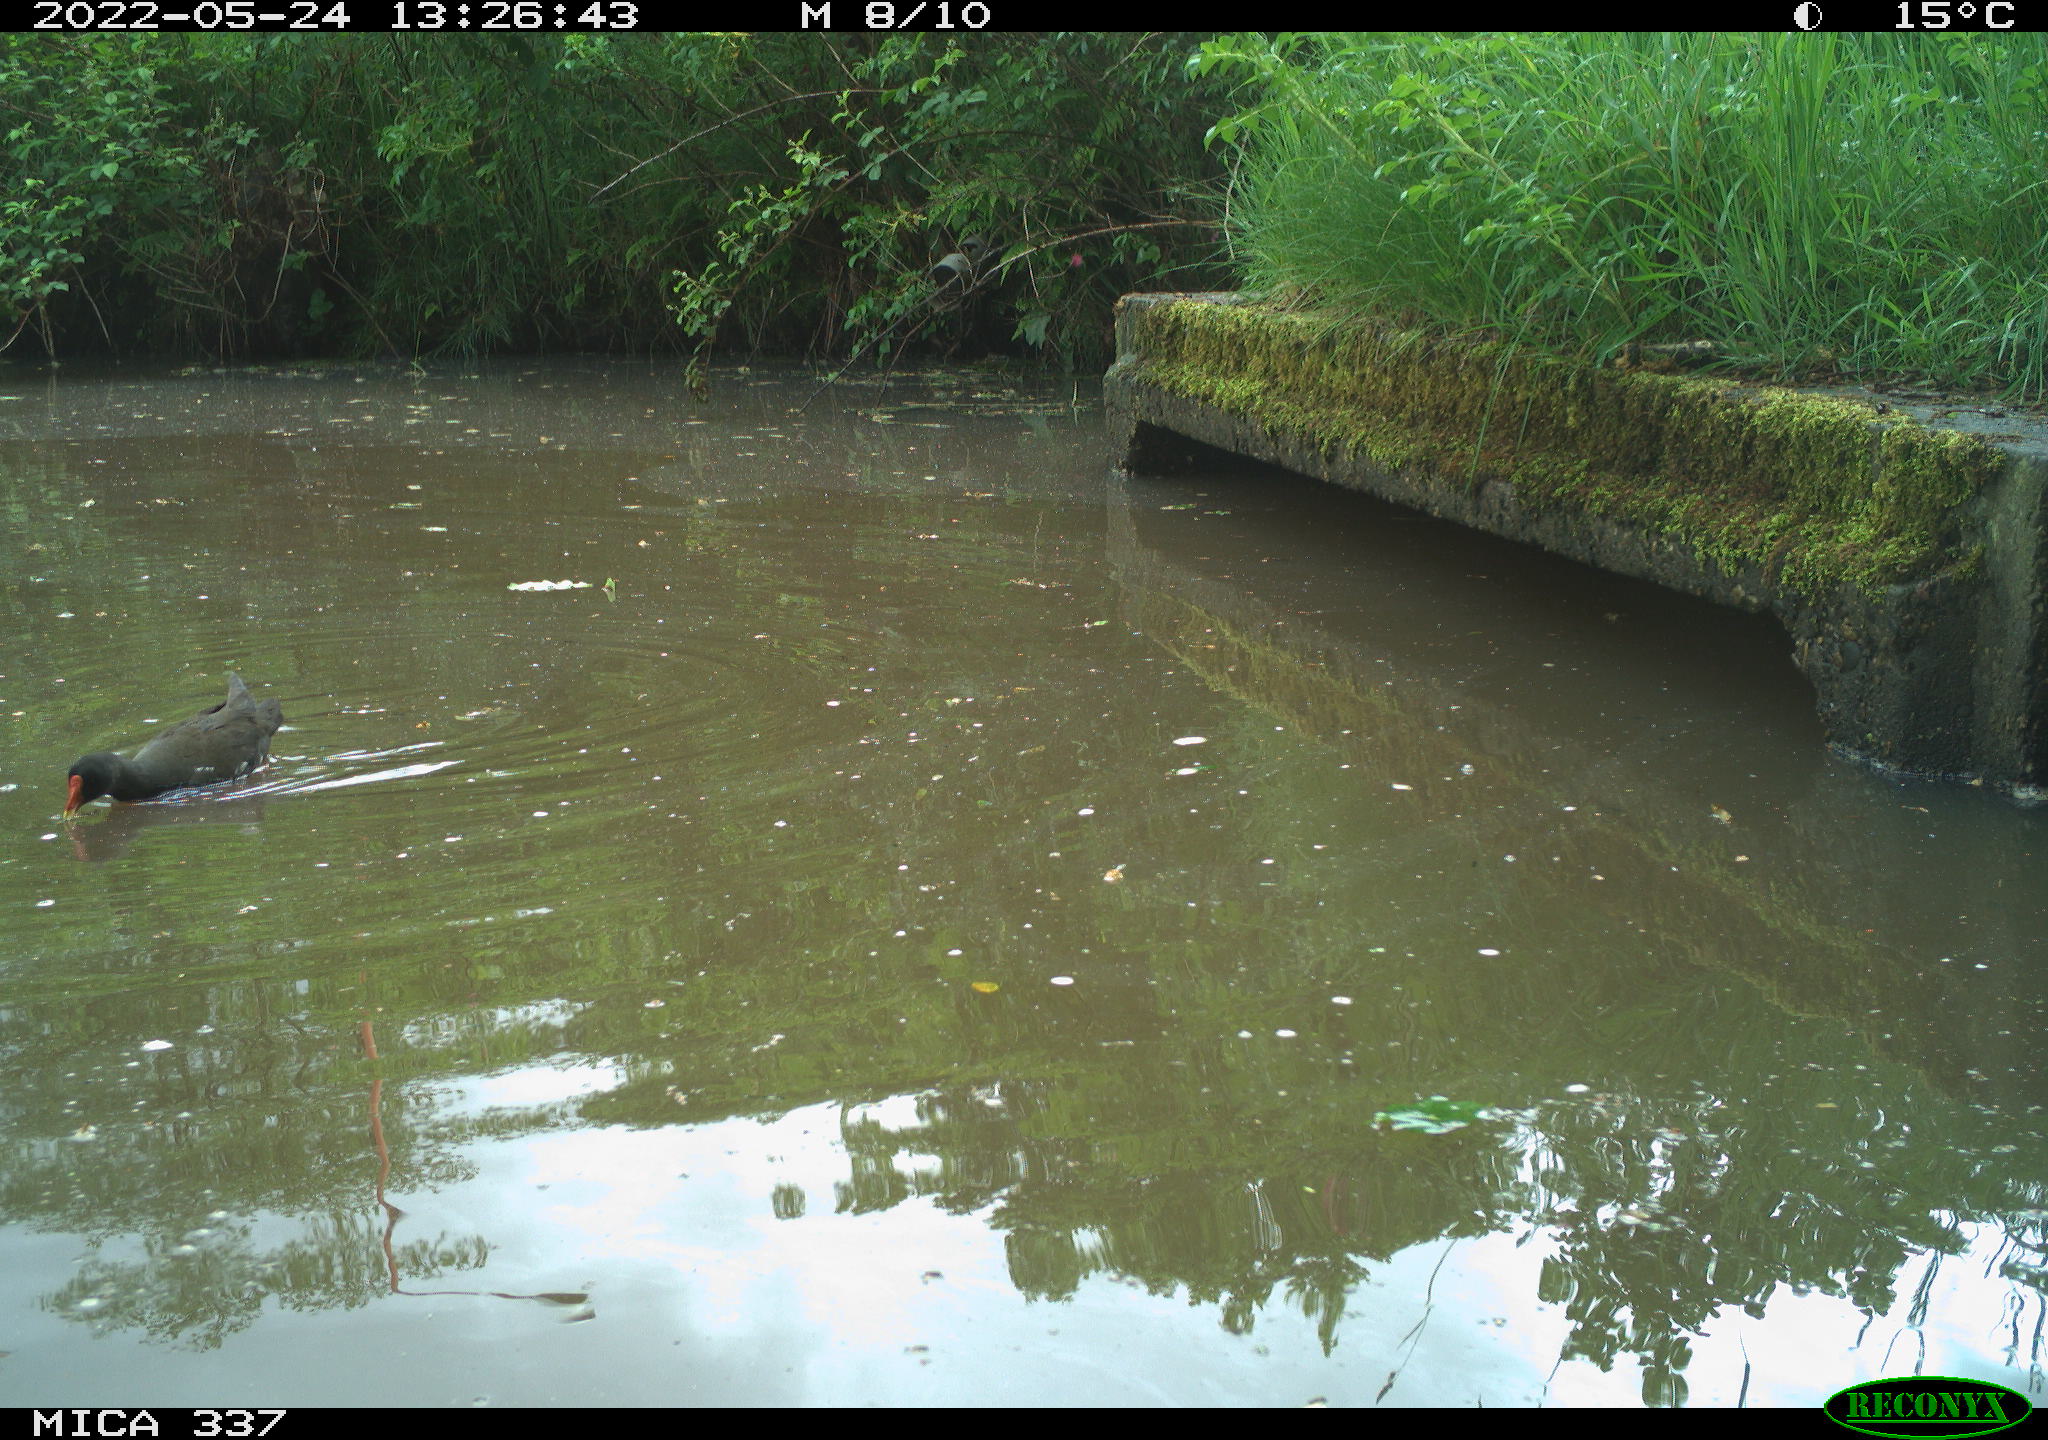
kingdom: Animalia
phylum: Chordata
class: Aves
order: Gruiformes
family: Rallidae
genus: Gallinula
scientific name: Gallinula chloropus
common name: Common moorhen
